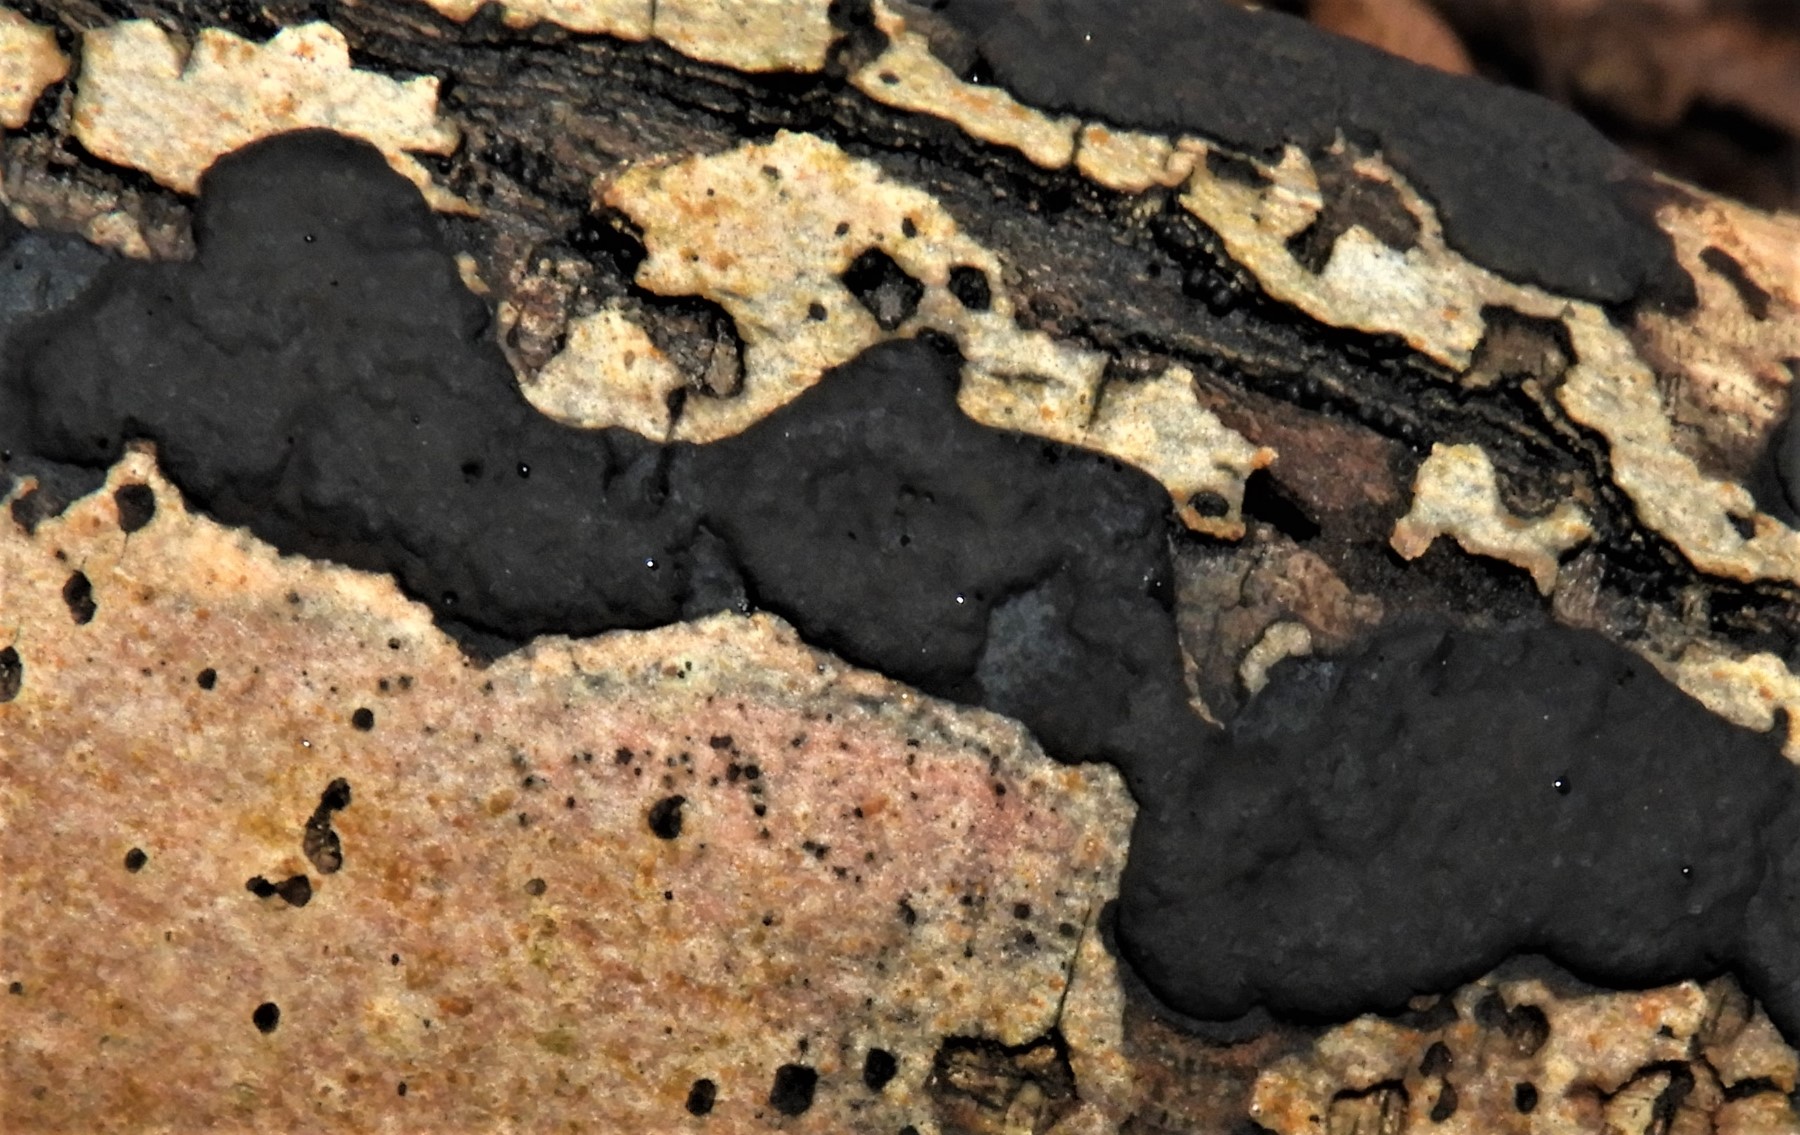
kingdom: Fungi
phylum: Ascomycota
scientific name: Ascomycota
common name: sæksvampe
